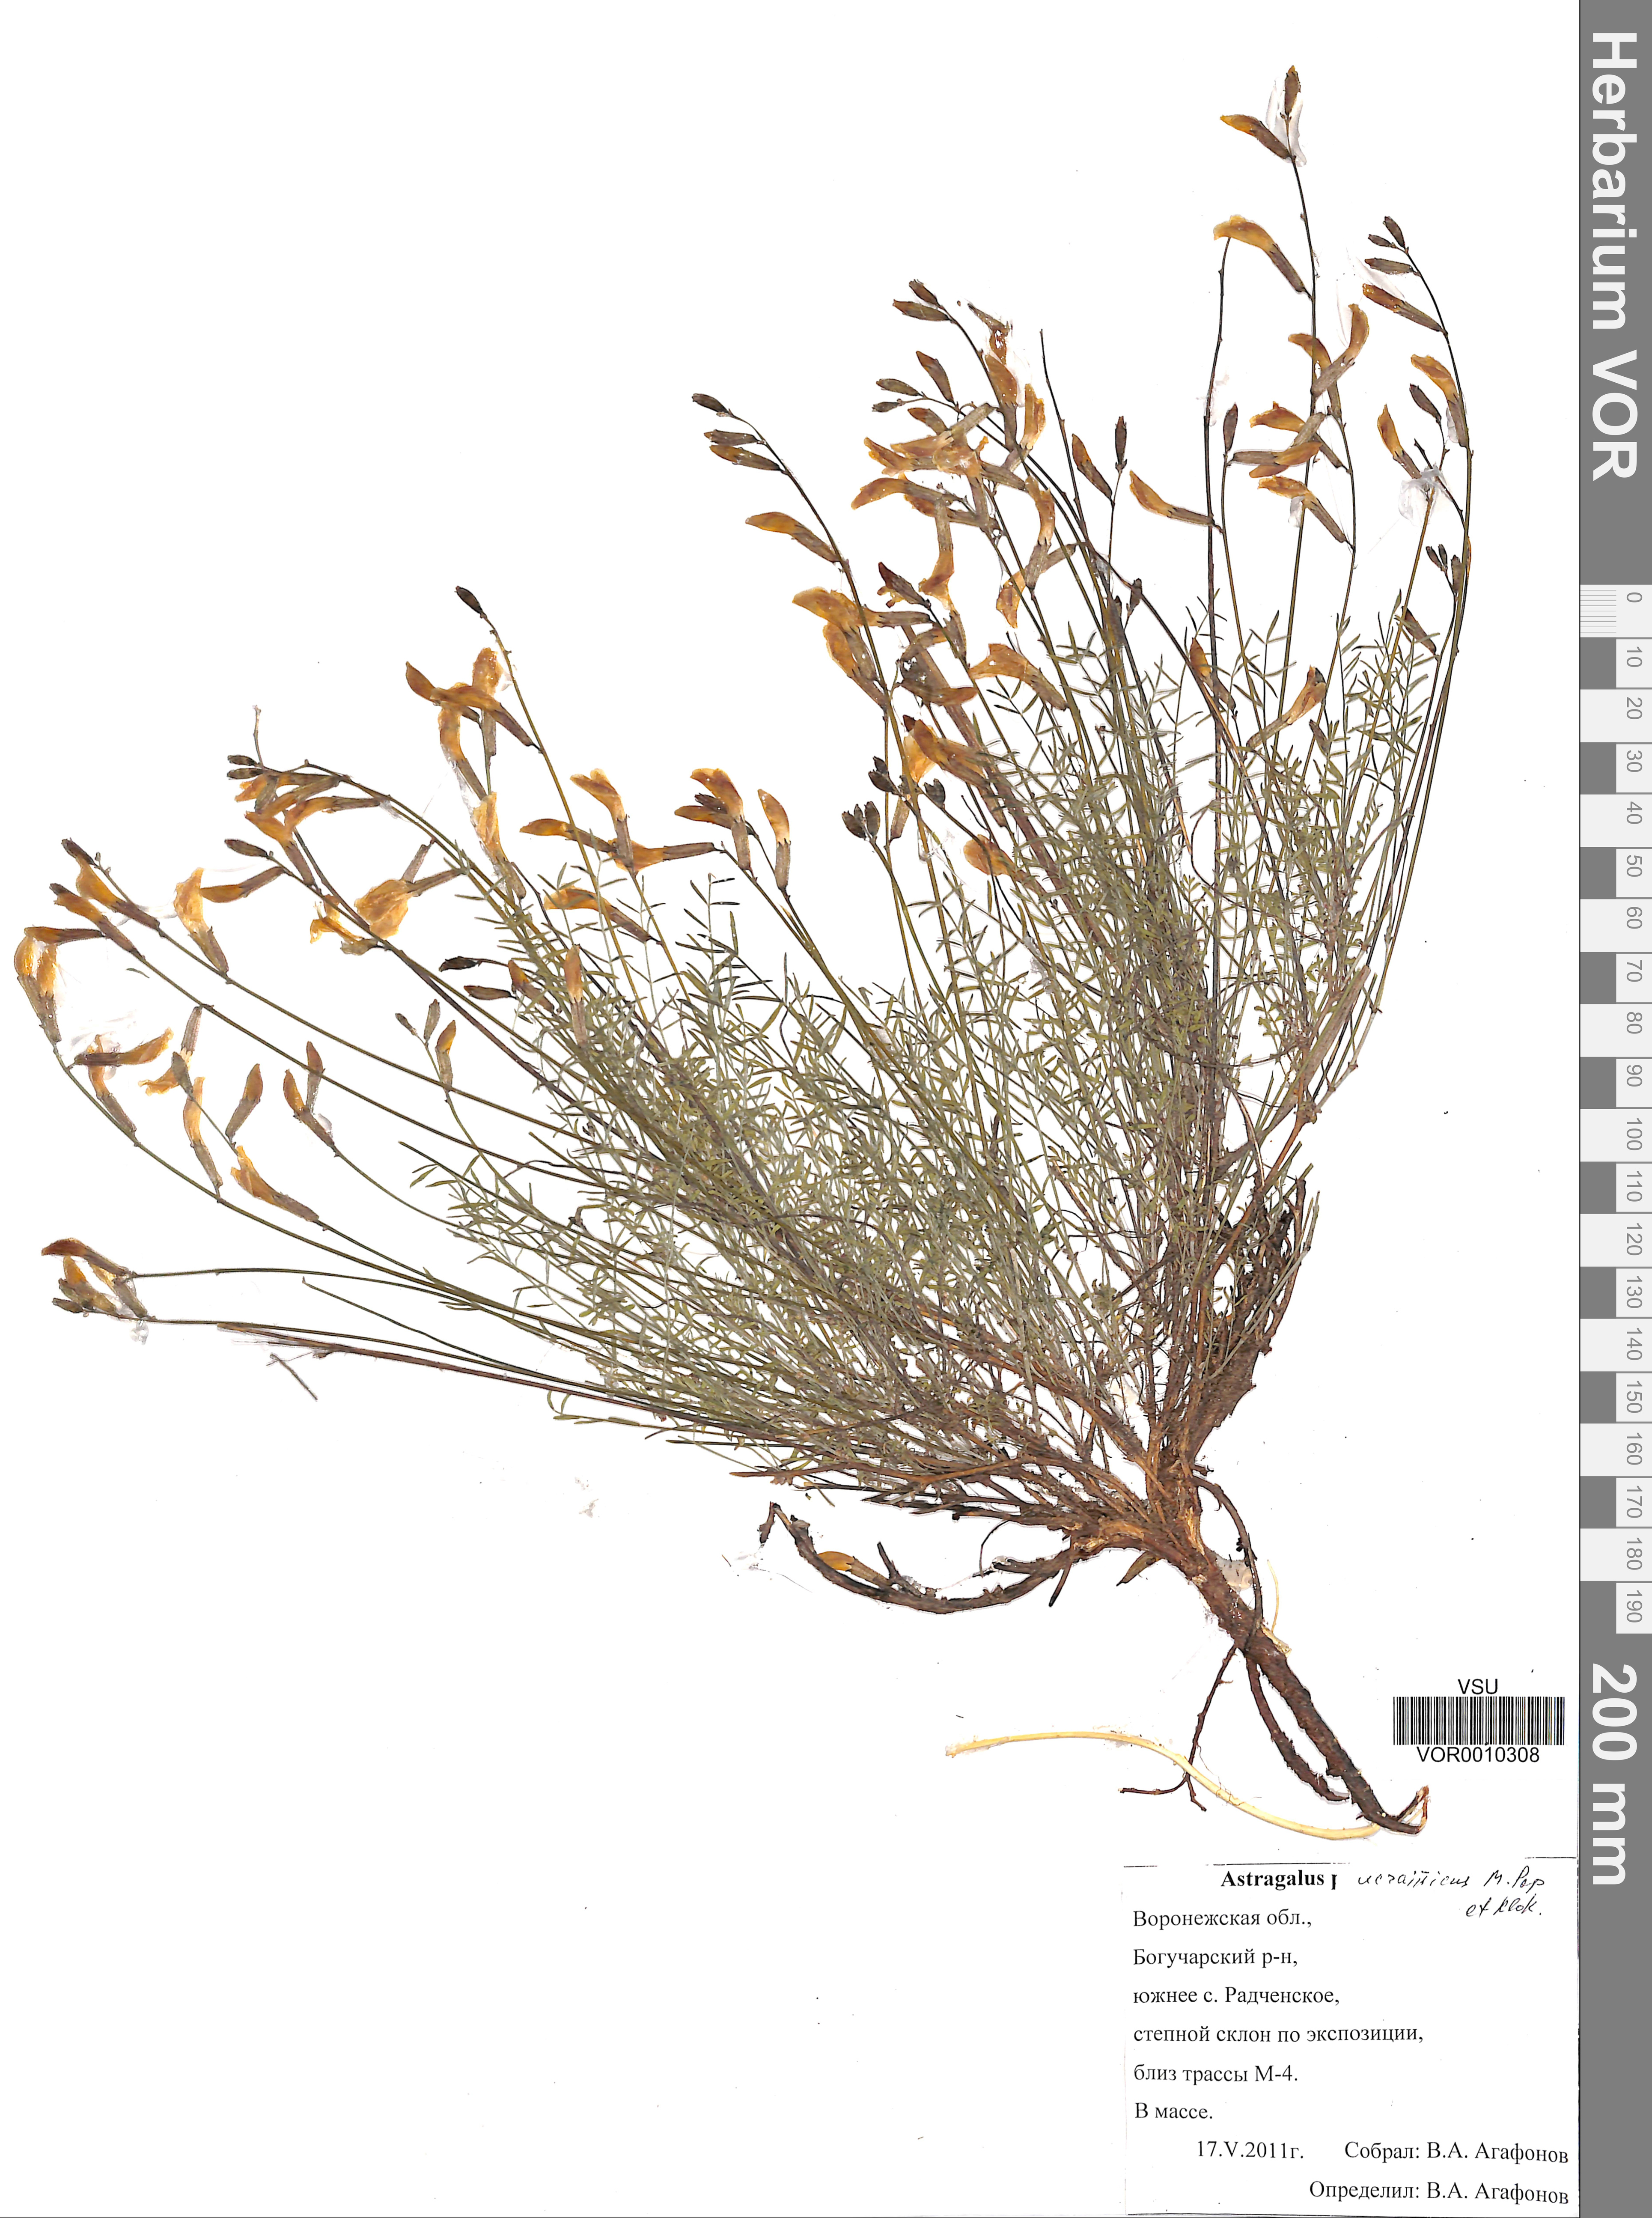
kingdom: Plantae
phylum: Tracheophyta
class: Magnoliopsida
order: Fabales
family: Fabaceae
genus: Astragalus
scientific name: Astragalus ucrainicus
